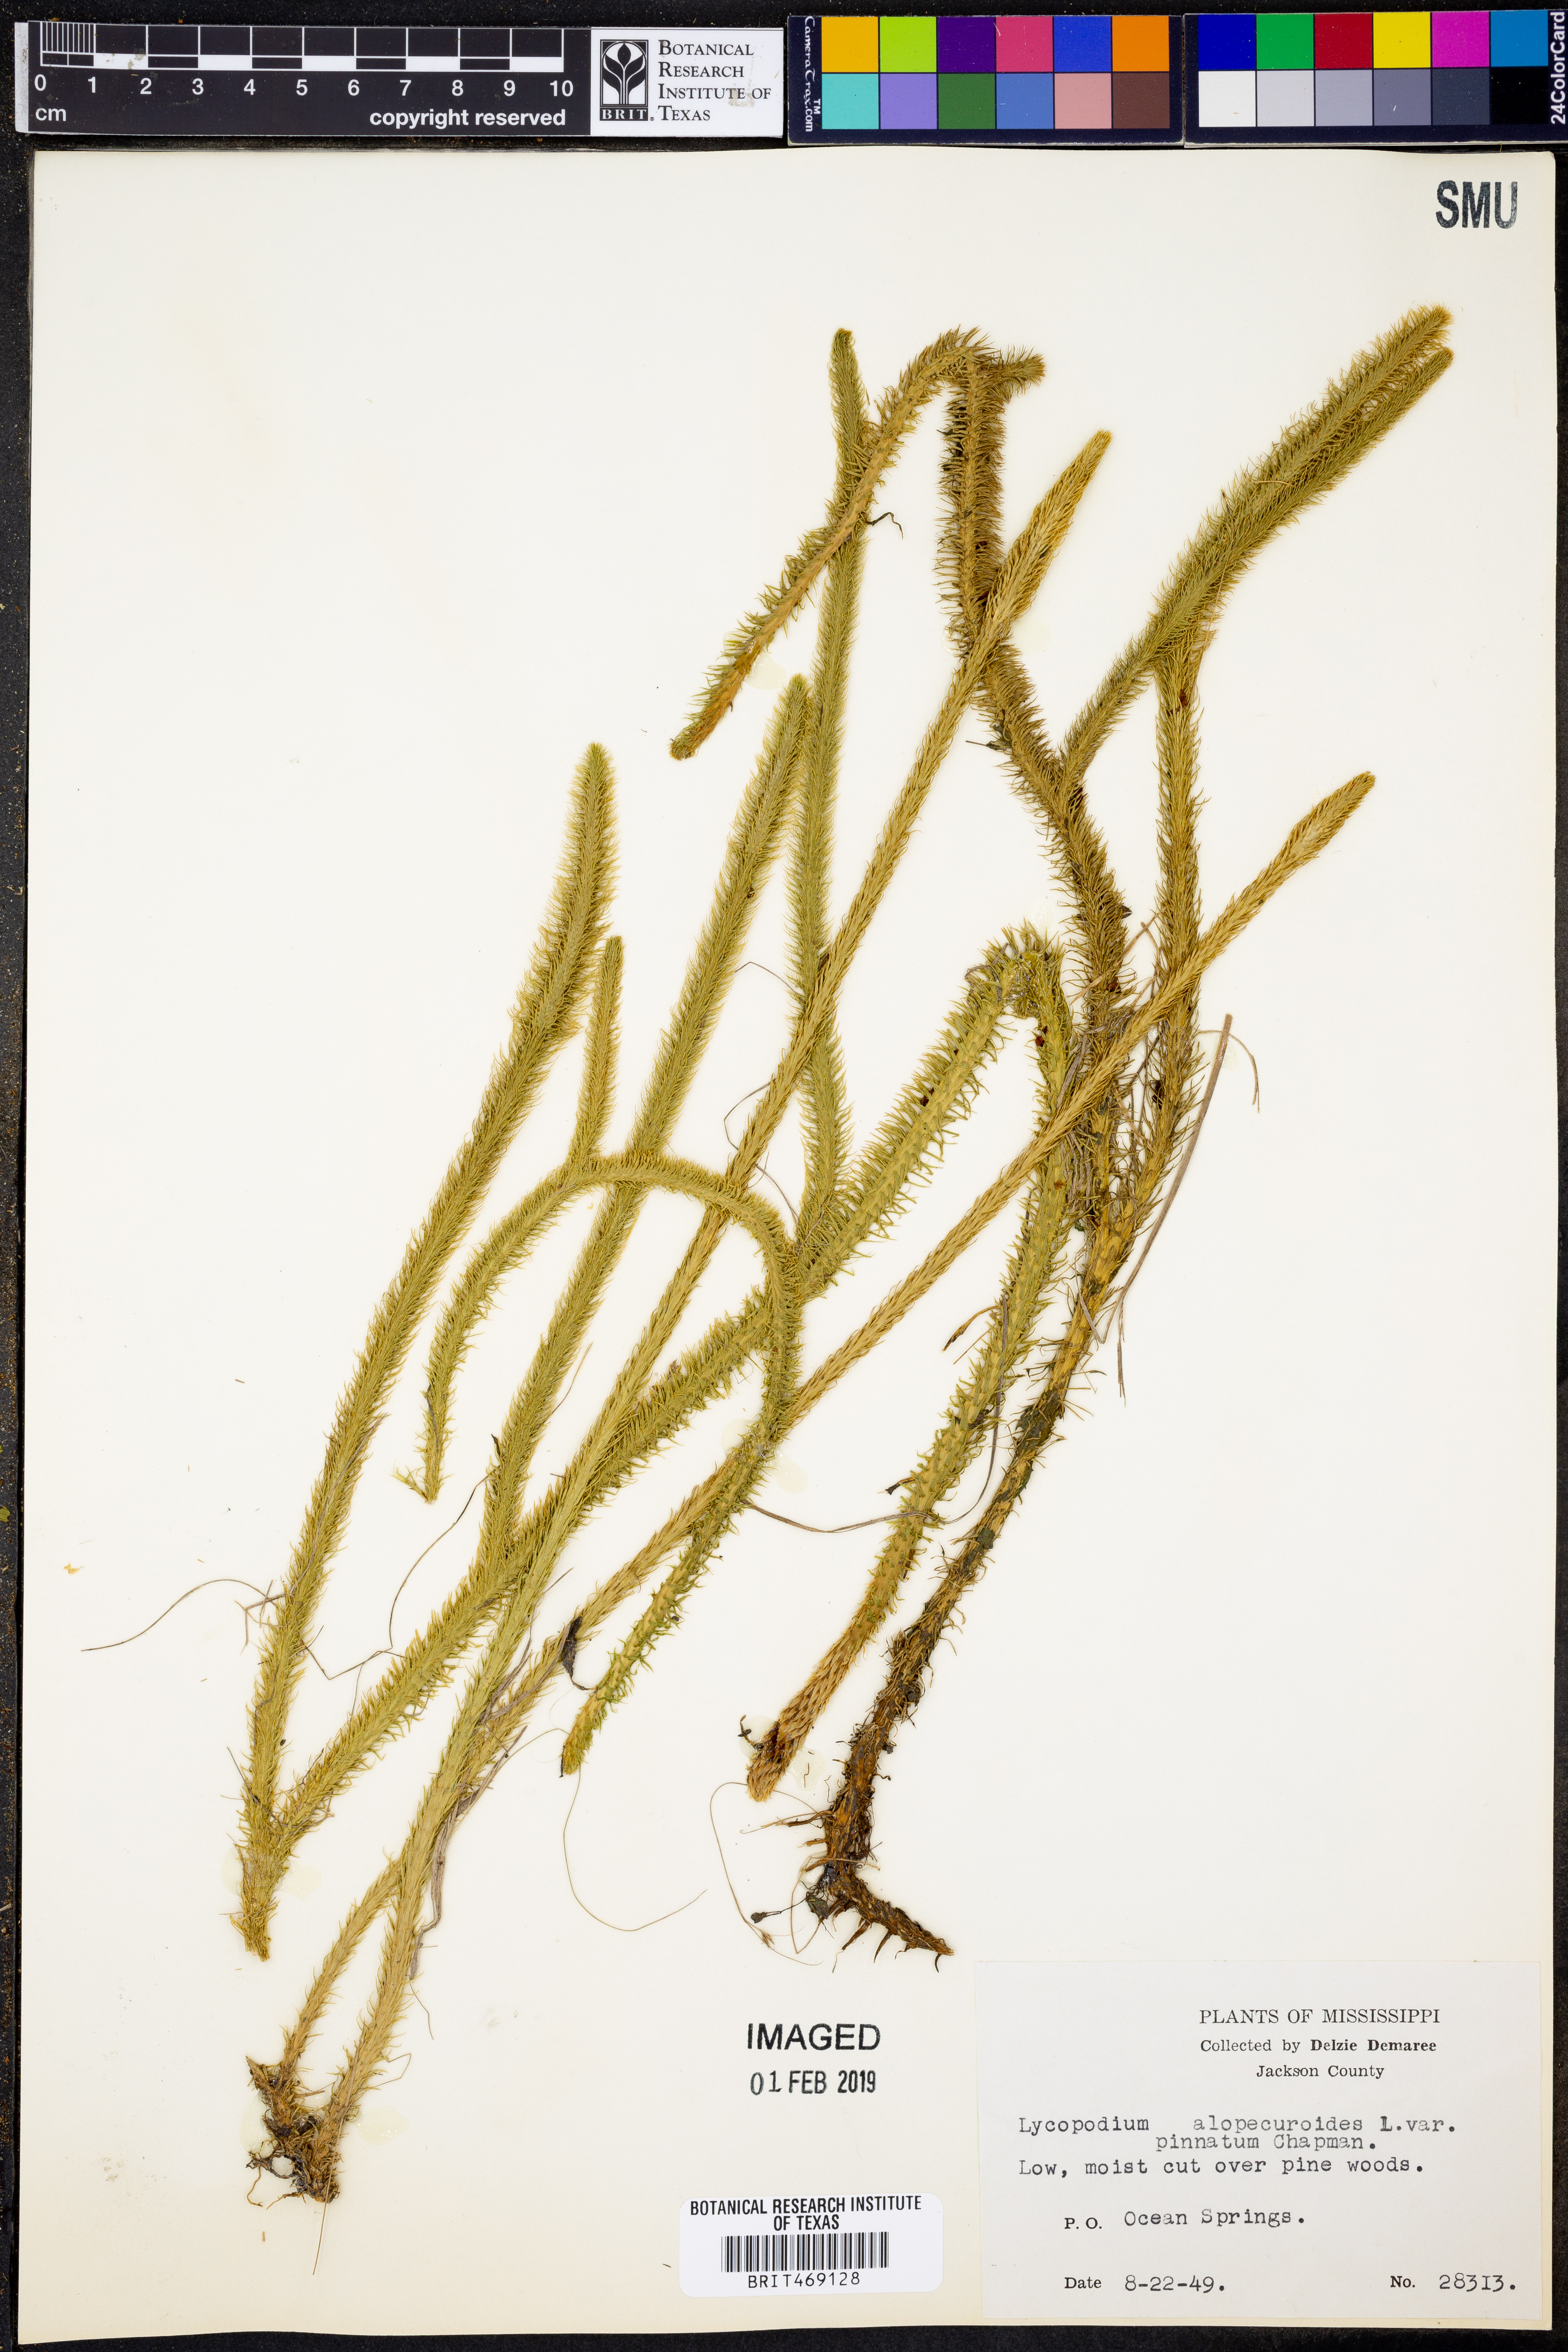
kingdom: Plantae
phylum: Tracheophyta
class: Lycopodiopsida
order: Lycopodiales
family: Lycopodiaceae
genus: Lycopodiella
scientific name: Lycopodiella alopecuroides
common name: Foxtail clubmoss
